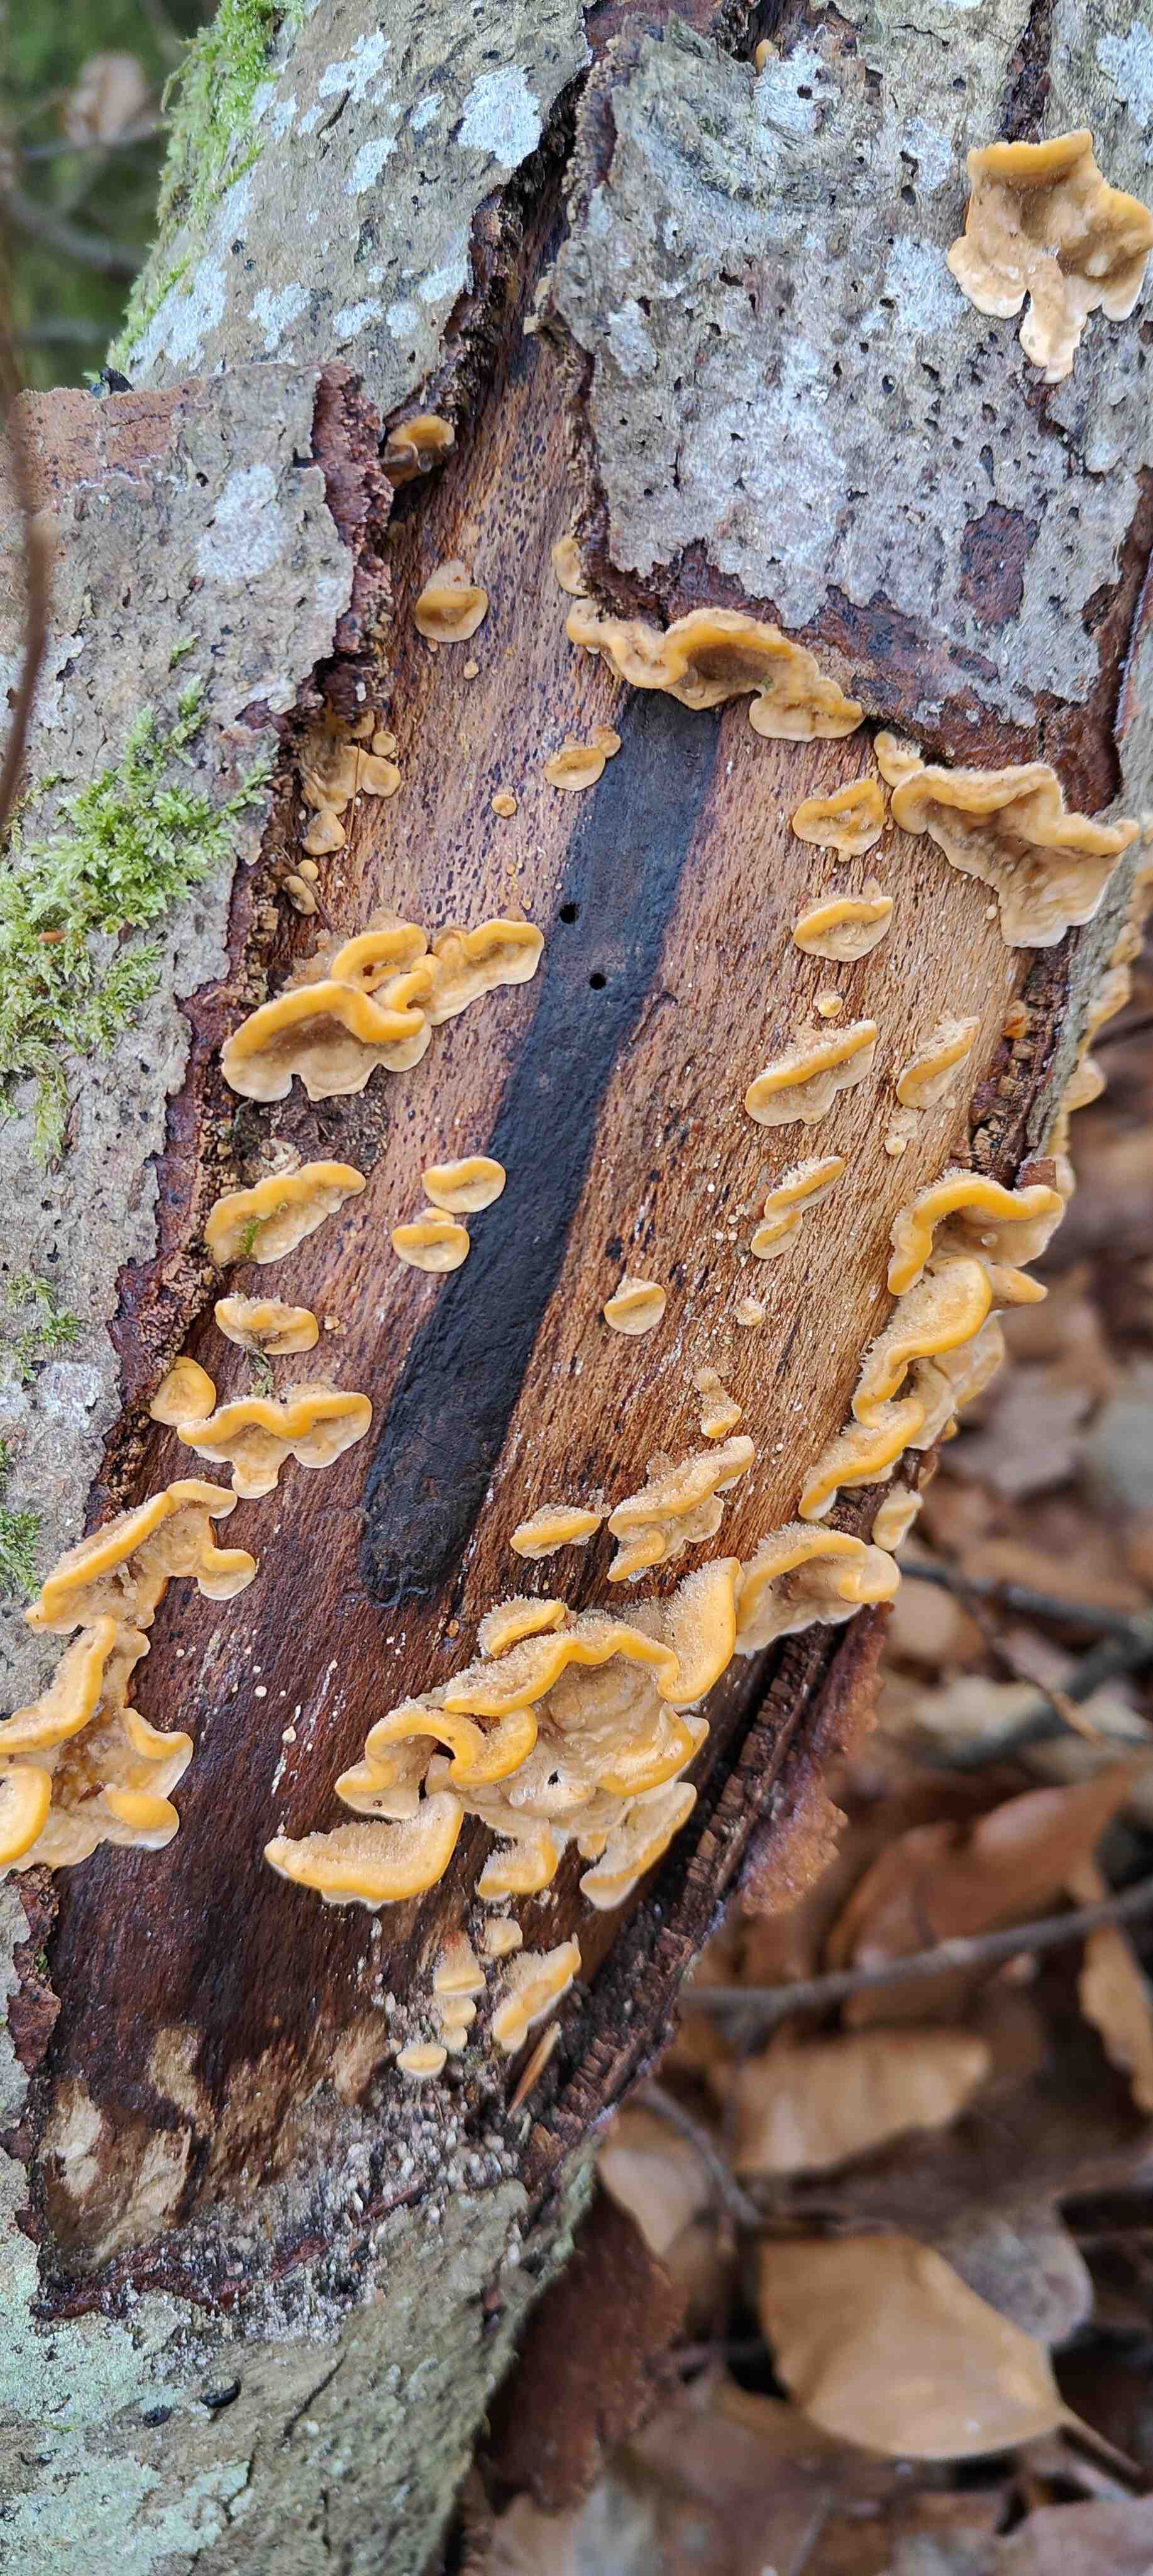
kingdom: Fungi
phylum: Basidiomycota
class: Agaricomycetes
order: Russulales
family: Stereaceae
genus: Stereum
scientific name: Stereum hirsutum
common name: håret lædersvamp
